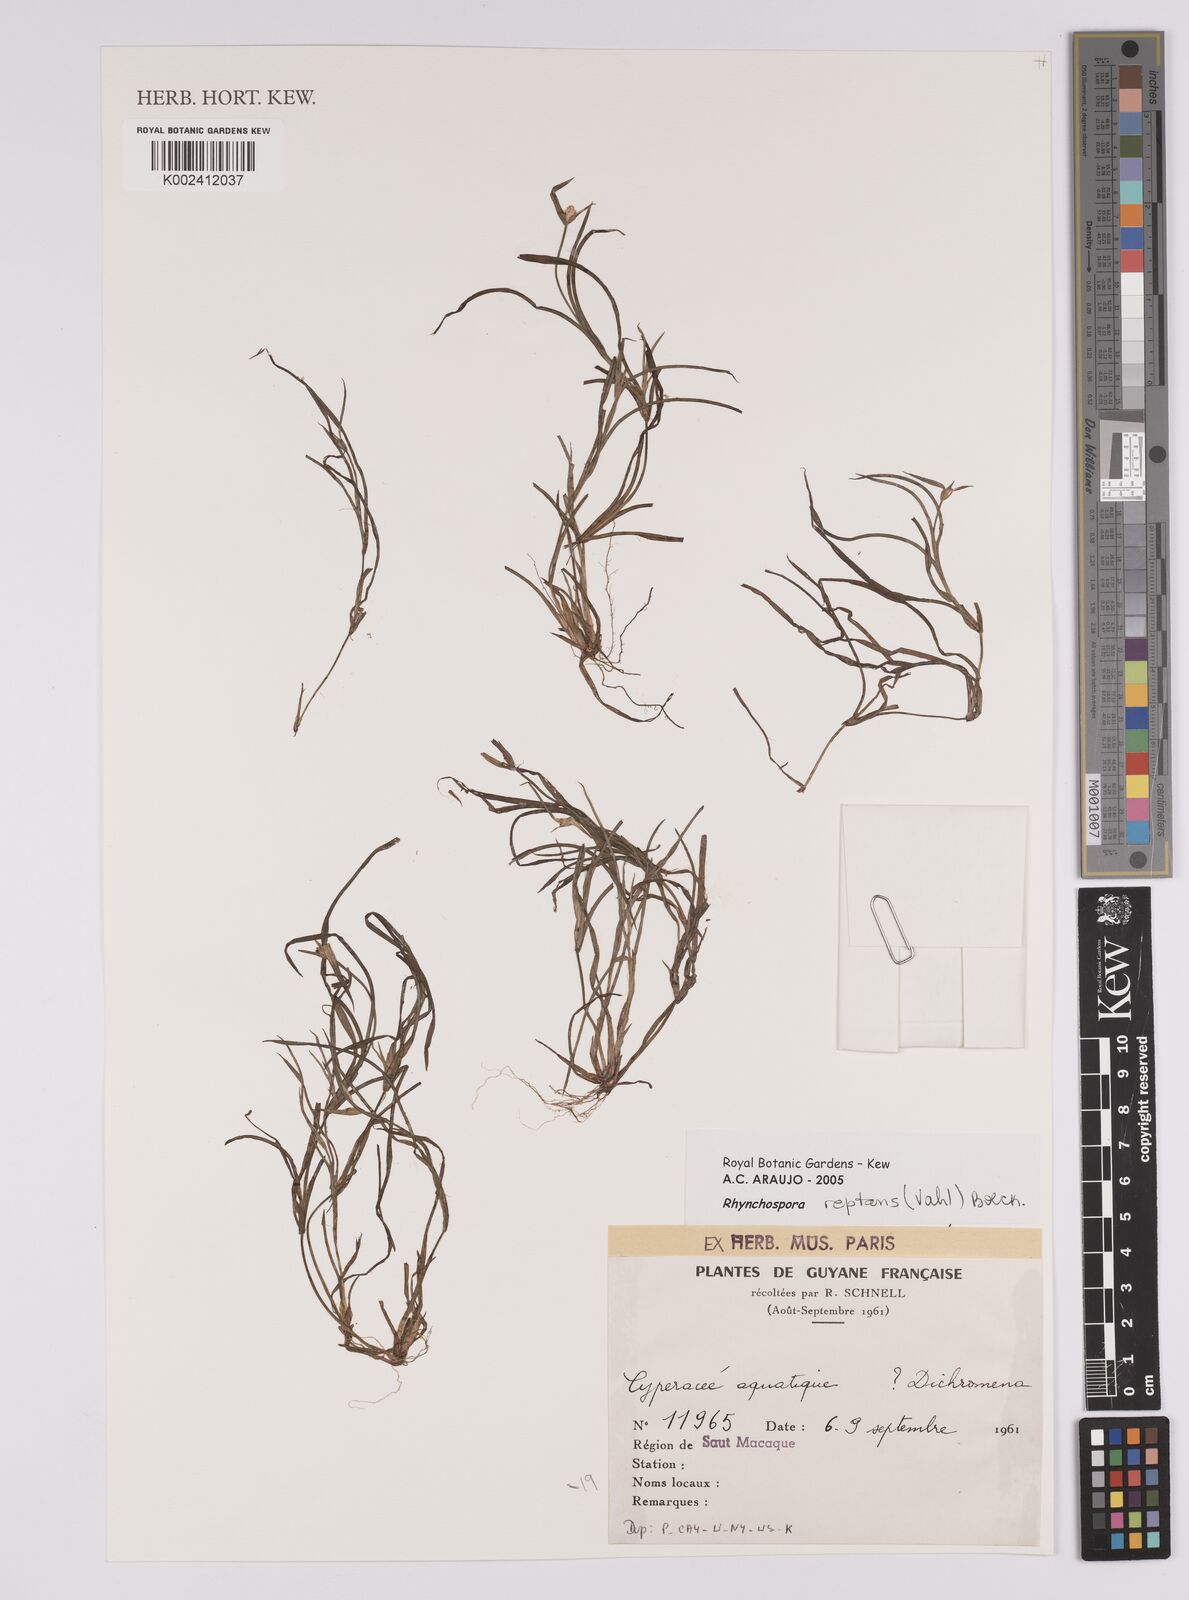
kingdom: Plantae
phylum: Tracheophyta
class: Liliopsida
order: Poales
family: Cyperaceae
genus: Rhynchospora
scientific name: Rhynchospora reptans
